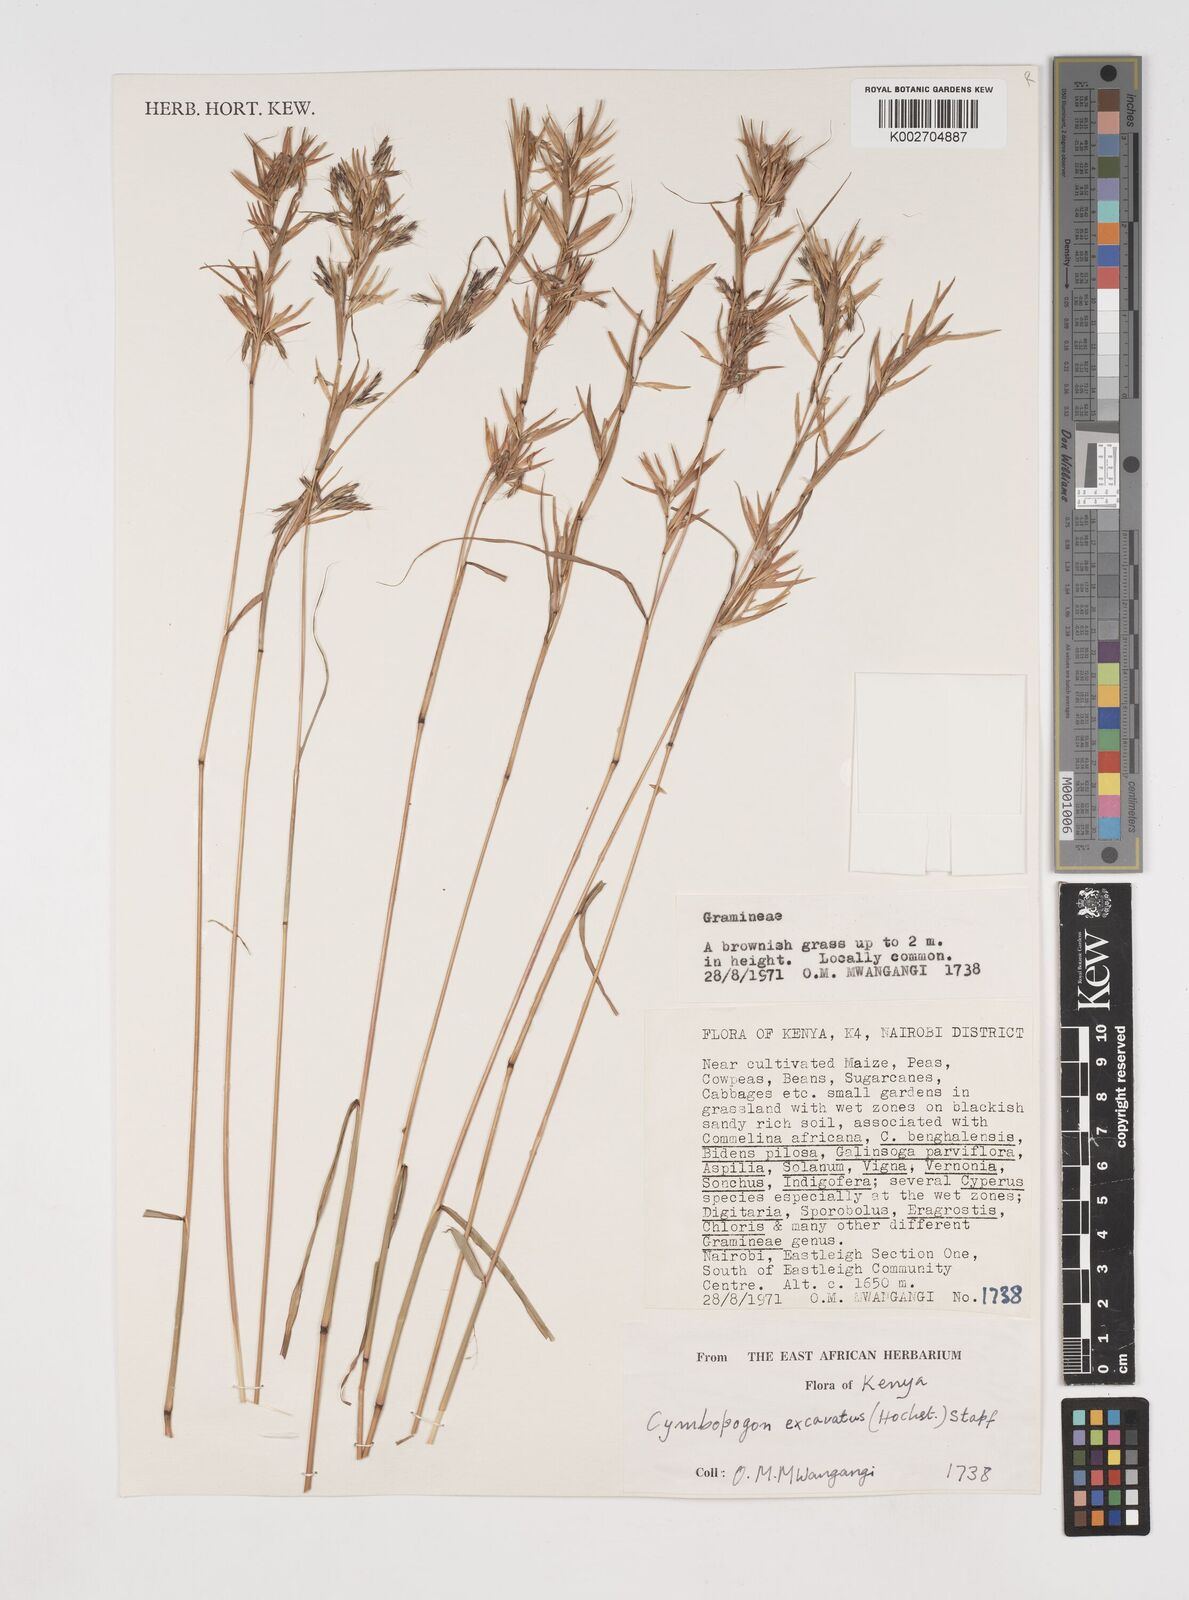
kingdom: Plantae
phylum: Tracheophyta
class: Liliopsida
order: Poales
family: Poaceae
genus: Cymbopogon
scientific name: Cymbopogon caesius
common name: Kachi grass
